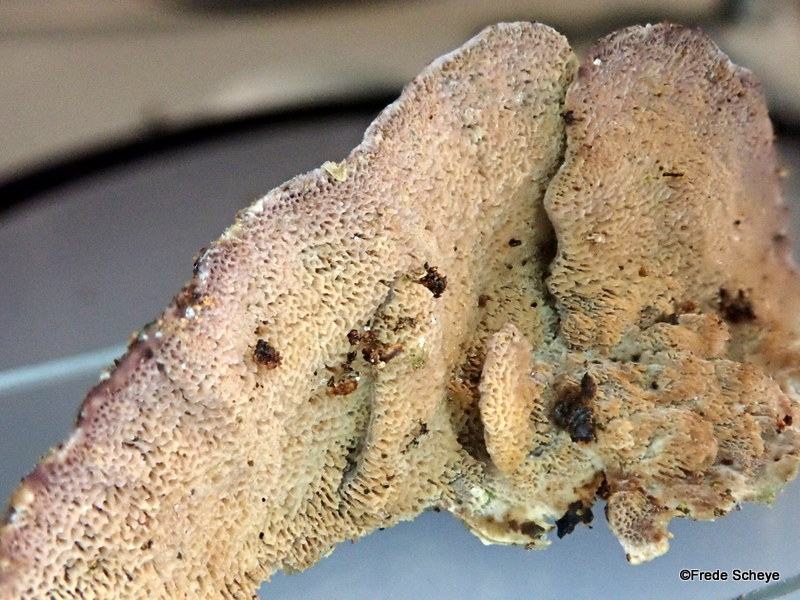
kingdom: Fungi
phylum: Basidiomycota
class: Agaricomycetes
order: Hymenochaetales
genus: Trichaptum
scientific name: Trichaptum abietinum
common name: almindelig violporesvamp
